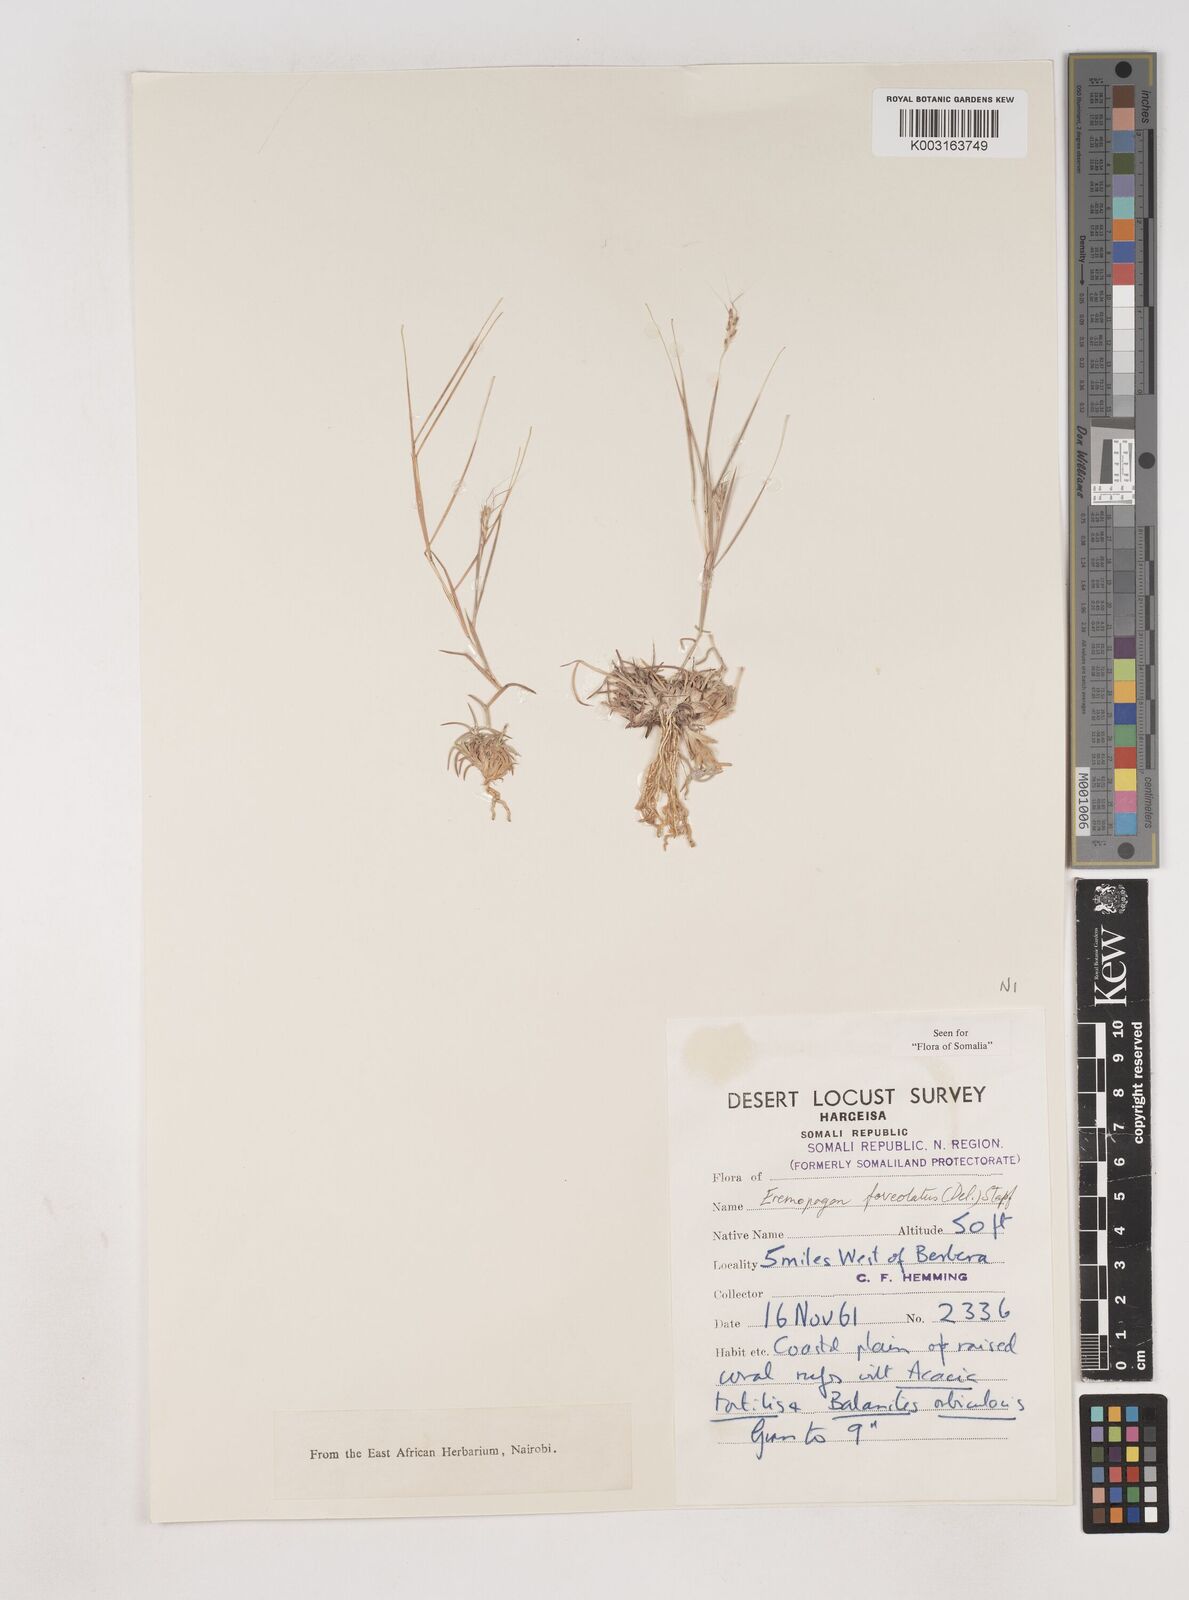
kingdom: Plantae
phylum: Tracheophyta
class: Liliopsida
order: Poales
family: Poaceae
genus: Dichanthium
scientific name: Dichanthium foveolatum
